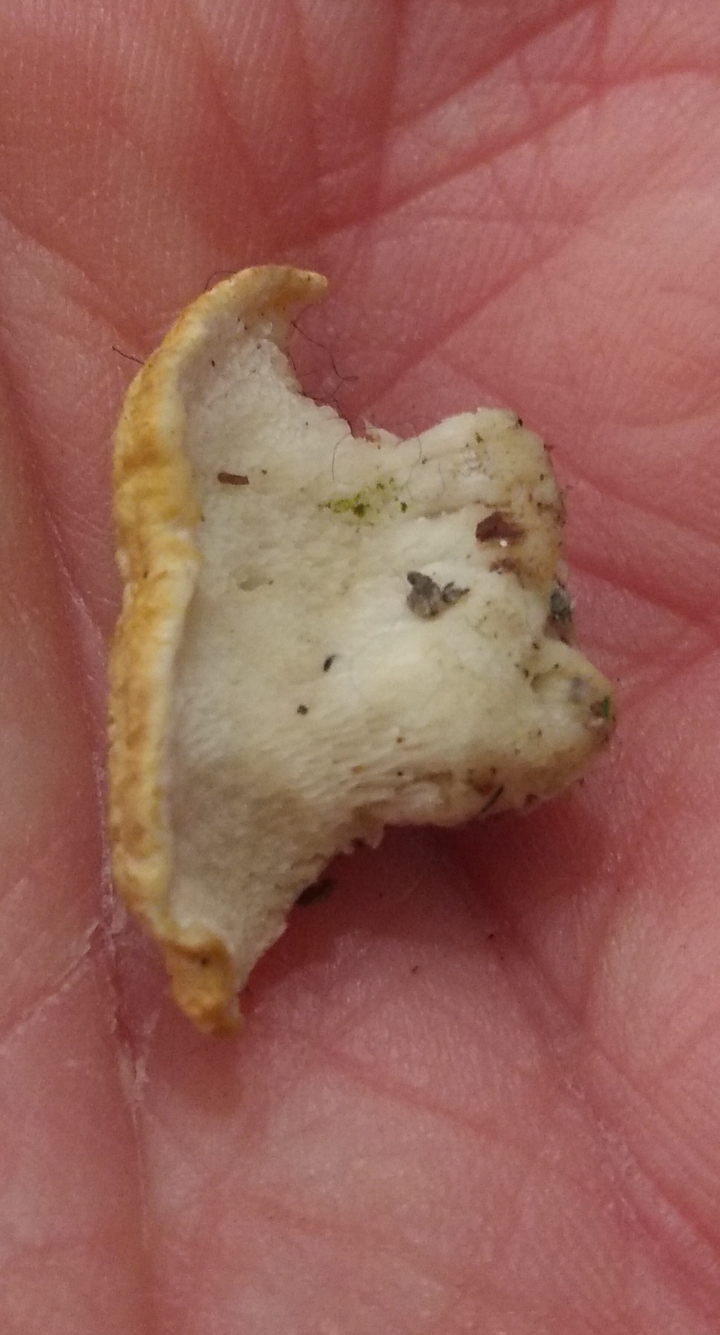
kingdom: Fungi
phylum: Basidiomycota
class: Agaricomycetes
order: Polyporales
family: Fomitopsidaceae
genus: Neoantrodia
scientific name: Neoantrodia serialis
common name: række-sejporesvamp
